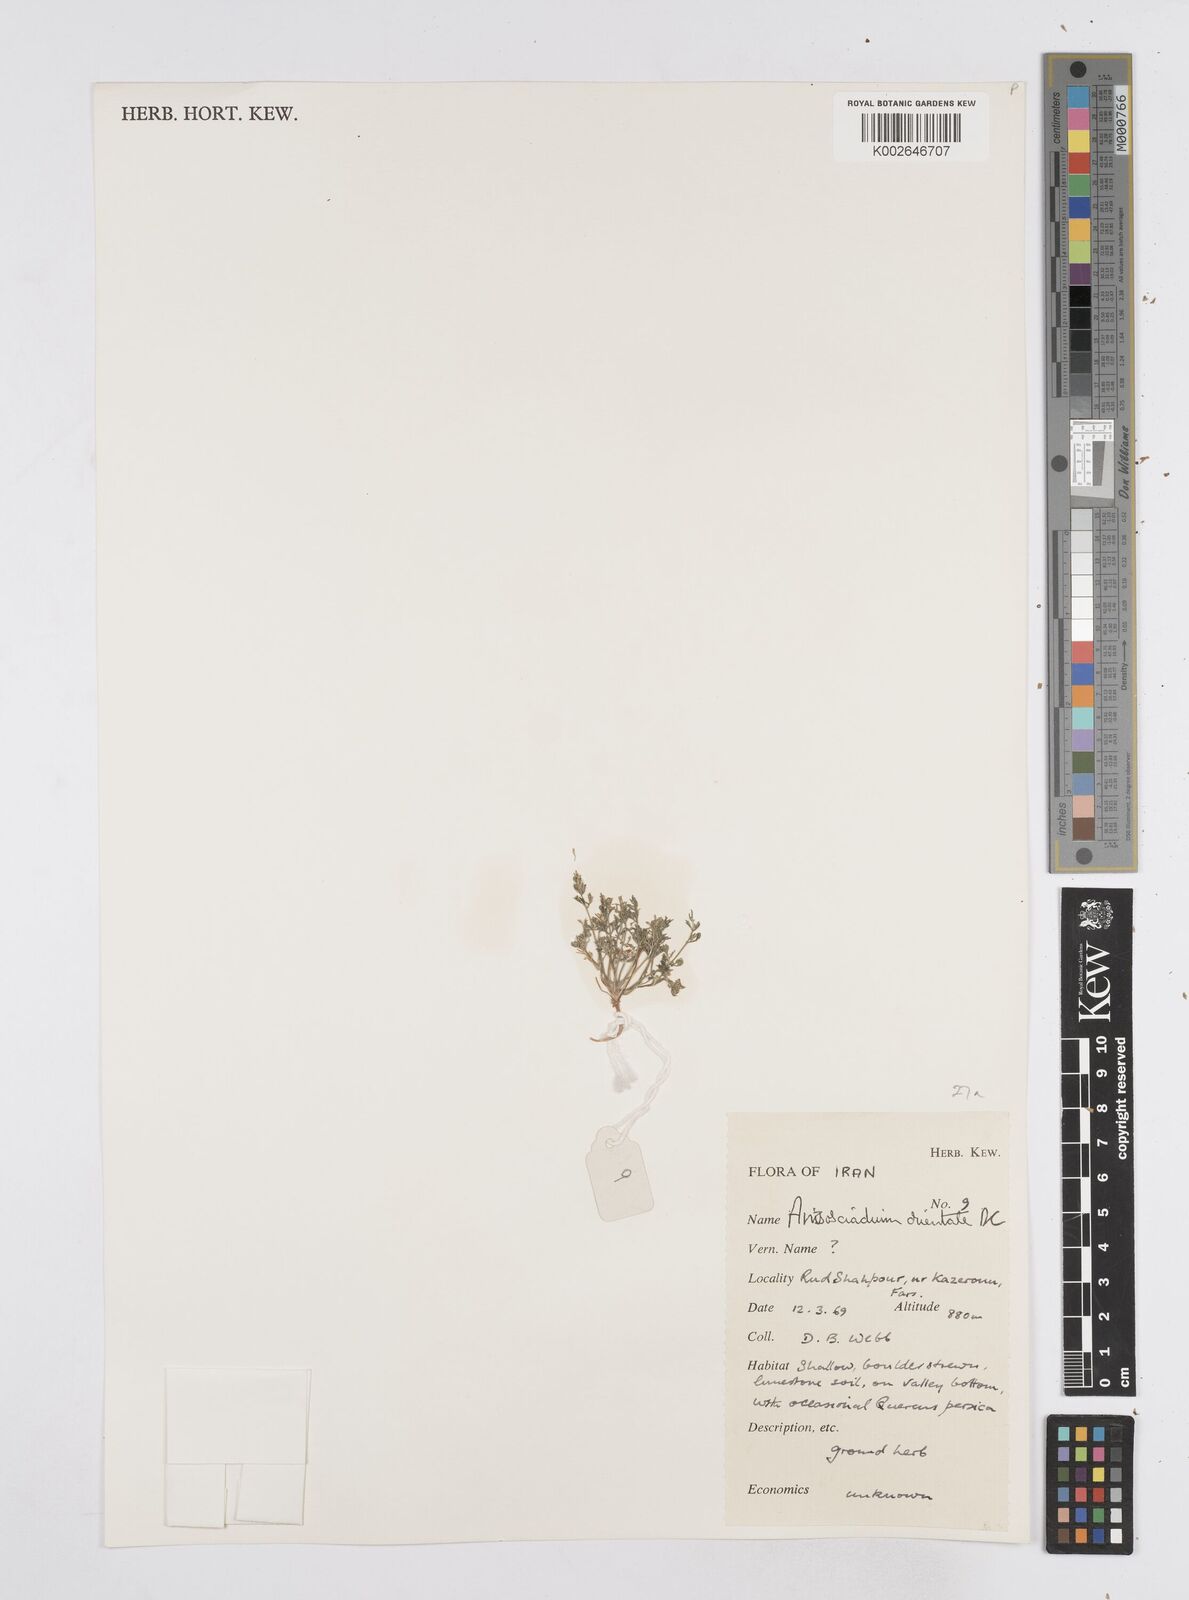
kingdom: Plantae
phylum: Tracheophyta
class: Magnoliopsida
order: Apiales
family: Apiaceae
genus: Anisosciadium
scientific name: Anisosciadium orientale
